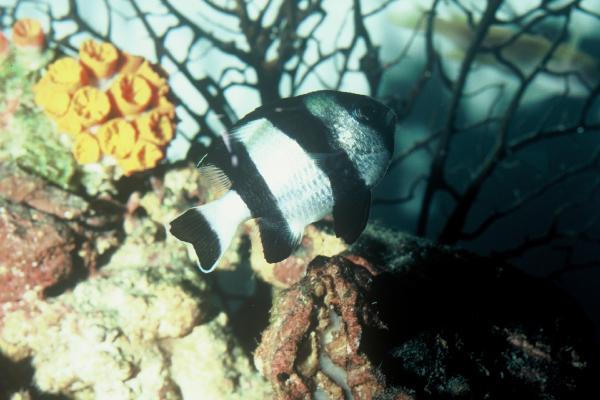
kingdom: Animalia
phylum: Chordata
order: Perciformes
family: Pomacentridae
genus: Dascyllus
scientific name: Dascyllus carneus
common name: Indian dascyllus
